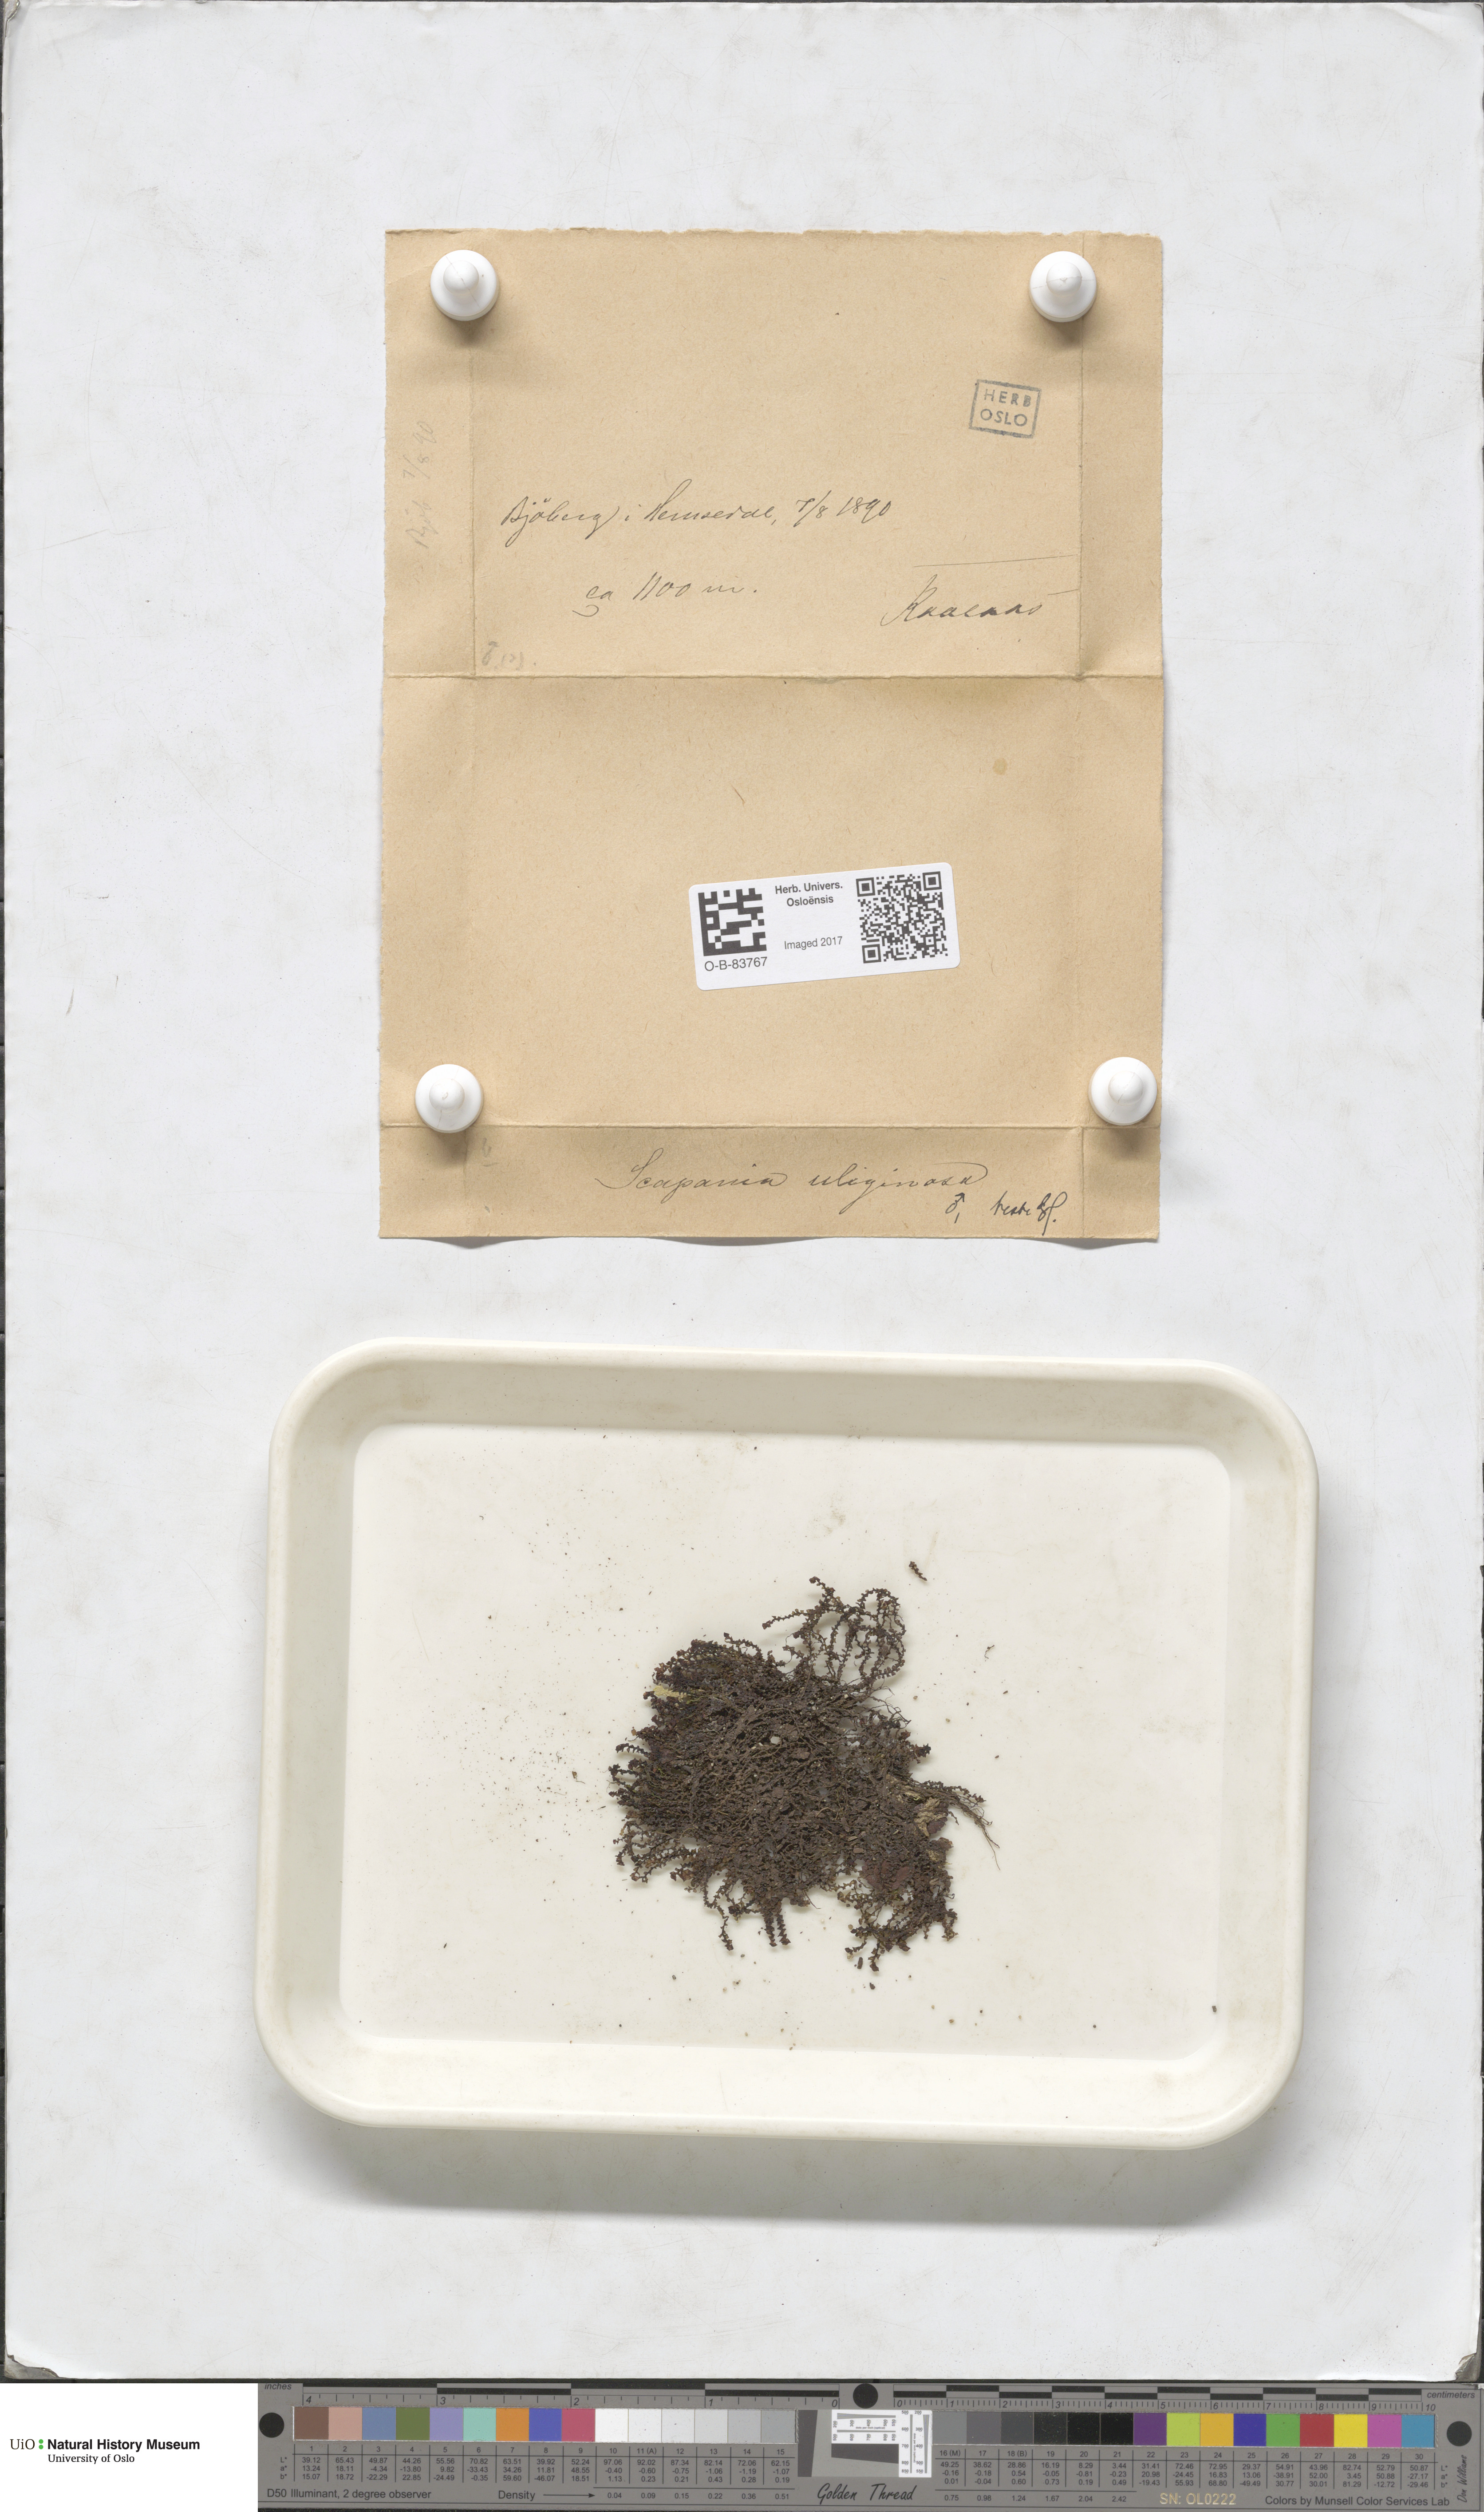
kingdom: Plantae
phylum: Marchantiophyta
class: Jungermanniopsida
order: Jungermanniales
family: Scapaniaceae
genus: Scapania
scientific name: Scapania uliginosa
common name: Marsh earwort
